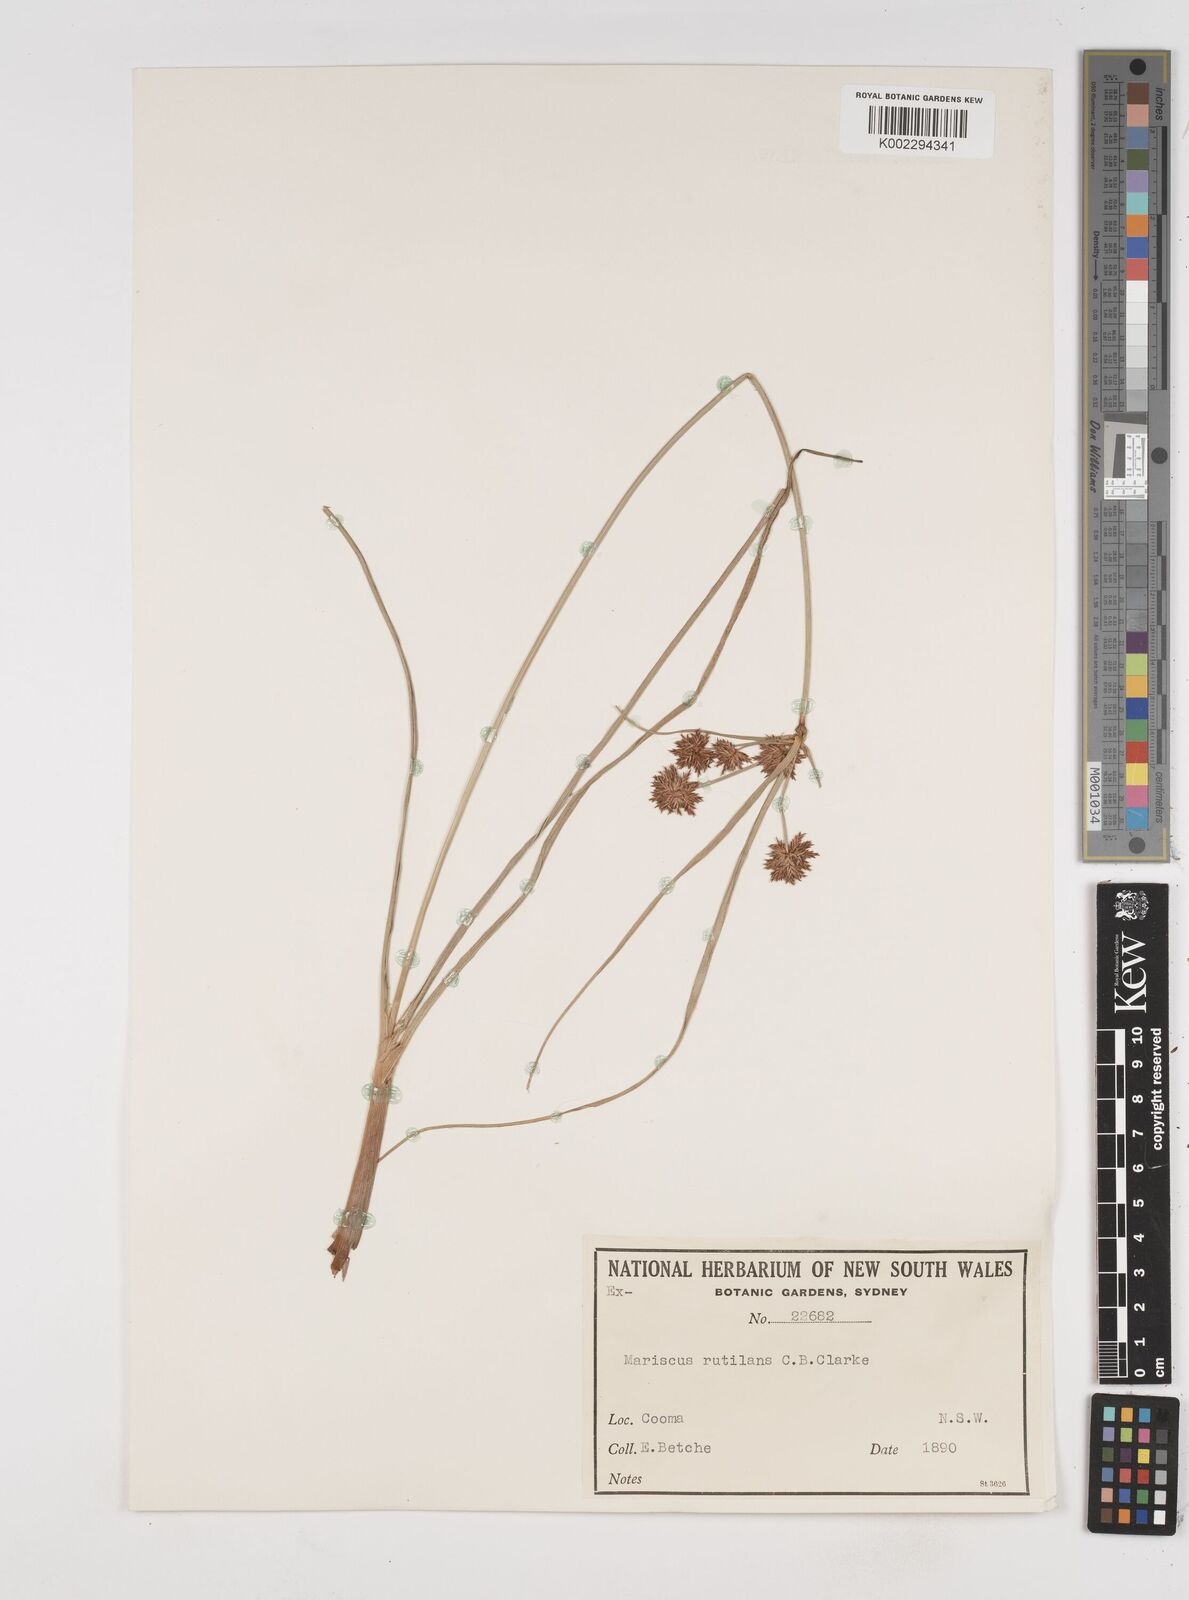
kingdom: Plantae
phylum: Tracheophyta
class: Liliopsida
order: Poales
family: Cyperaceae
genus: Cyperus
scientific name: Cyperus lhotskyanus
